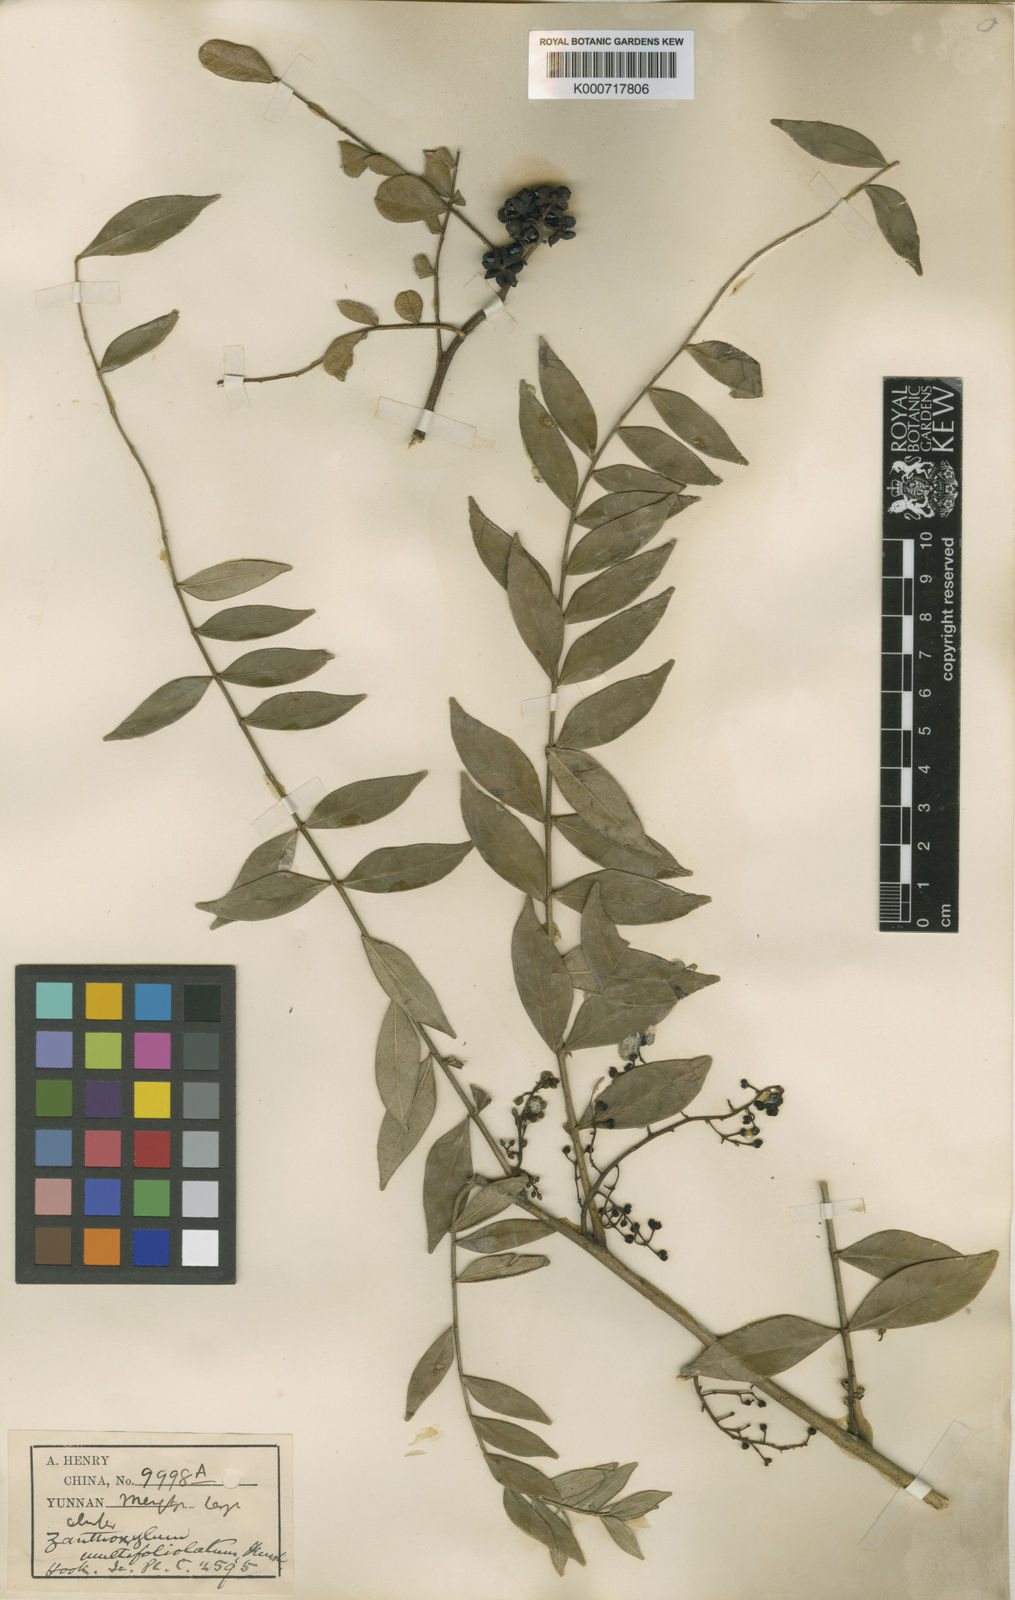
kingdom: Plantae
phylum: Tracheophyta
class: Magnoliopsida
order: Sapindales
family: Rutaceae
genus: Zanthoxylum
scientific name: Zanthoxylum multijugum
